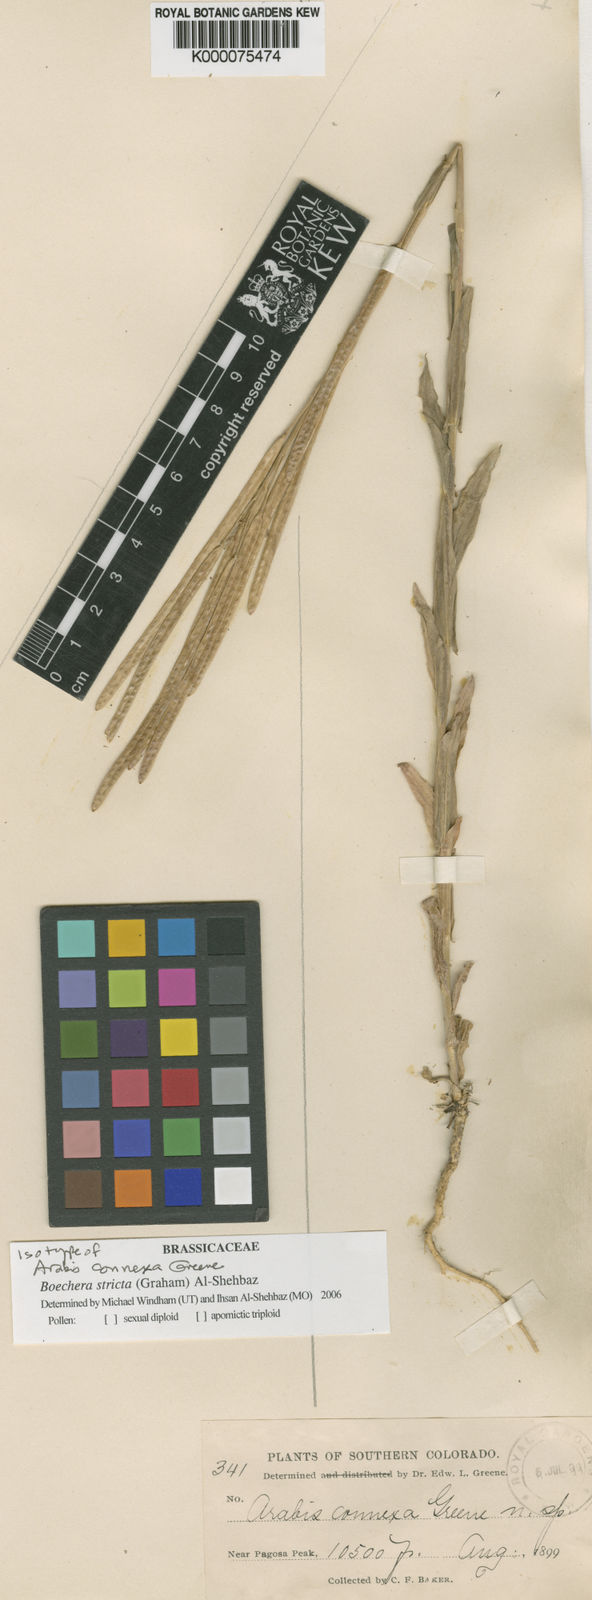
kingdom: Plantae
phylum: Tracheophyta
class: Magnoliopsida
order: Brassicales
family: Brassicaceae
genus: Boechera
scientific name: Boechera stricta
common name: Canadian rockcress
